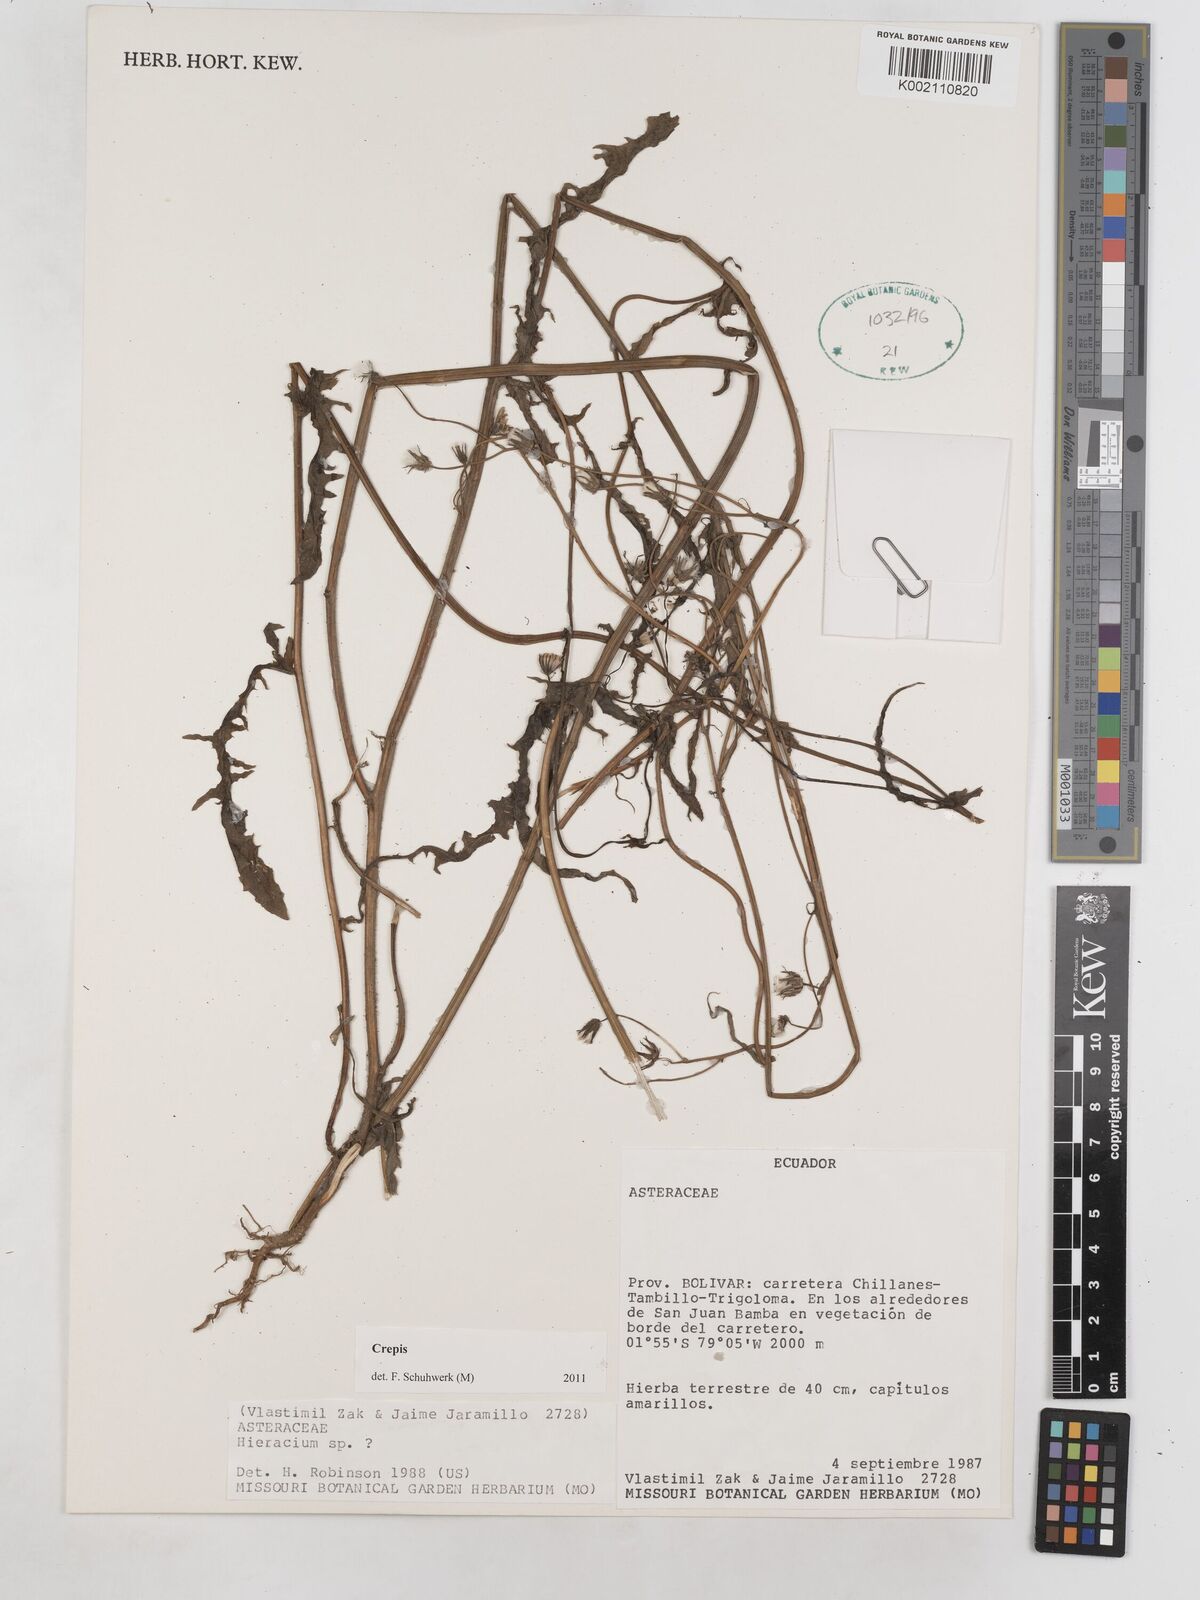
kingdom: Plantae
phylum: Tracheophyta
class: Magnoliopsida
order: Asterales
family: Asteraceae
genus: Crepis
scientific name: Crepis
